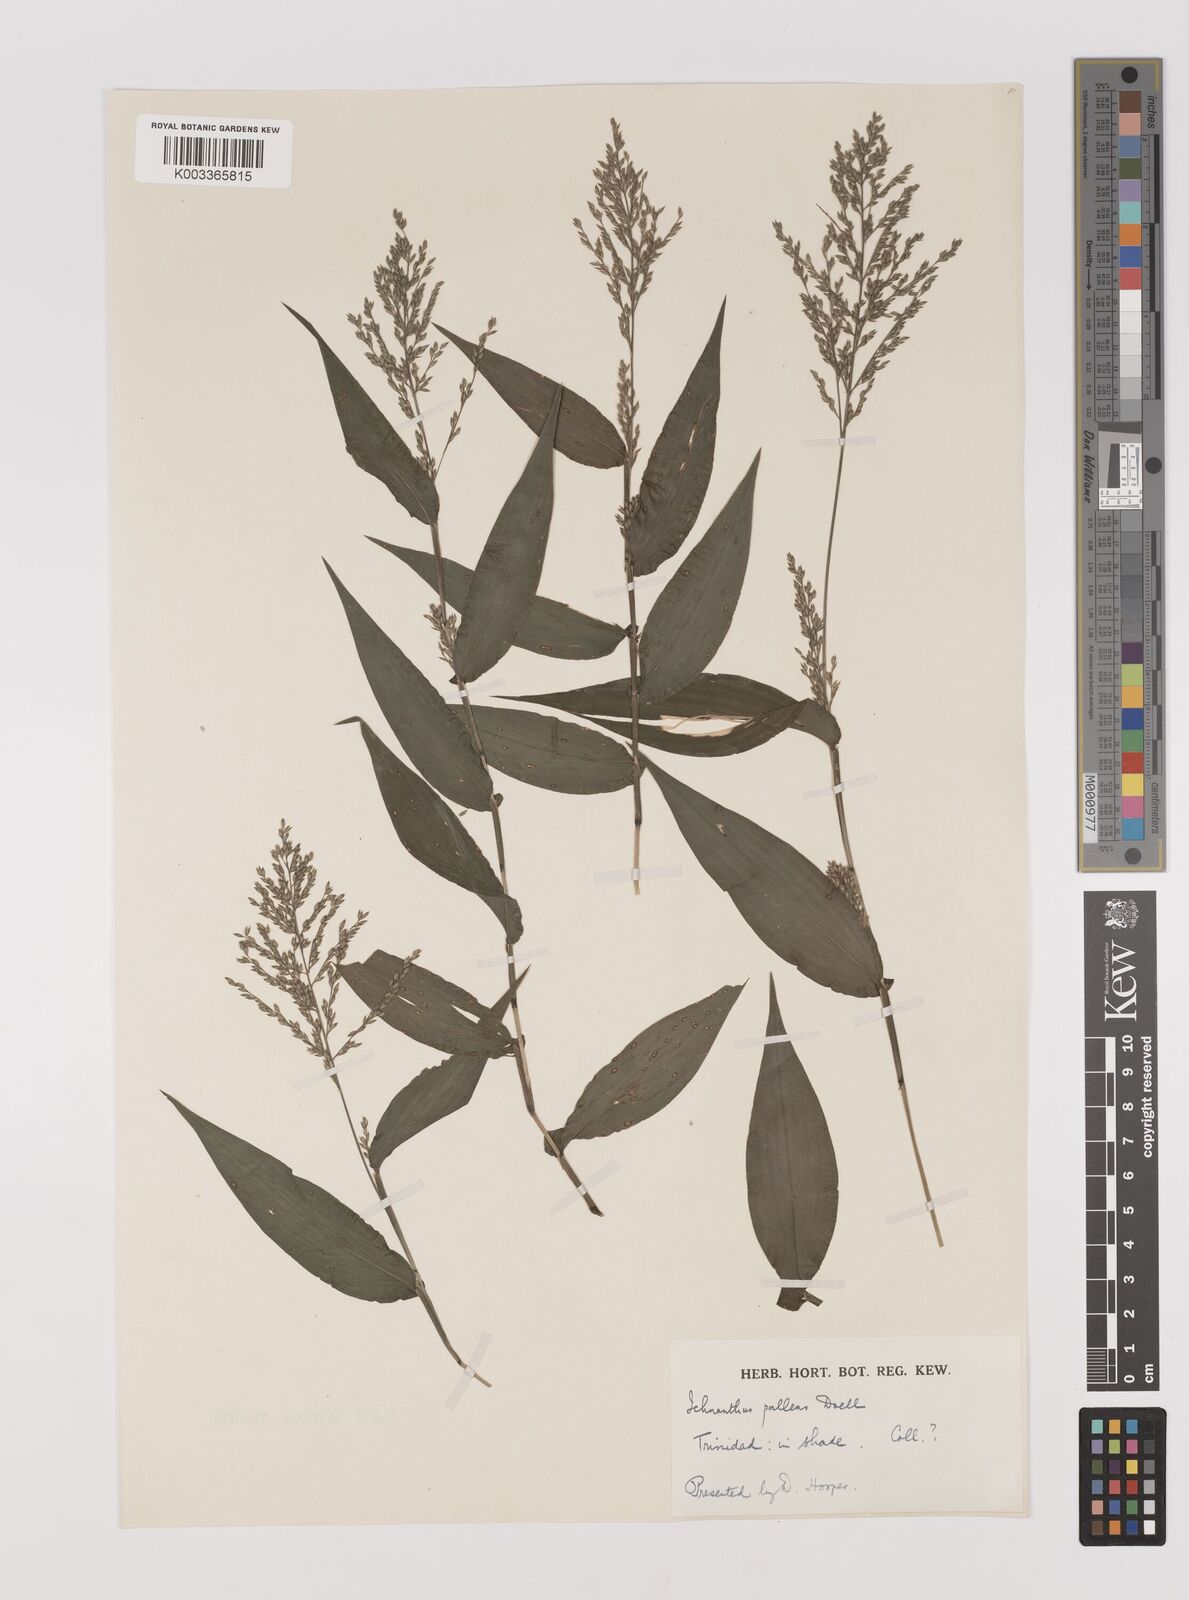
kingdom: Plantae
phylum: Tracheophyta
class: Liliopsida
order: Poales
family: Poaceae
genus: Ichnanthus
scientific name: Ichnanthus pallens
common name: Water grass
